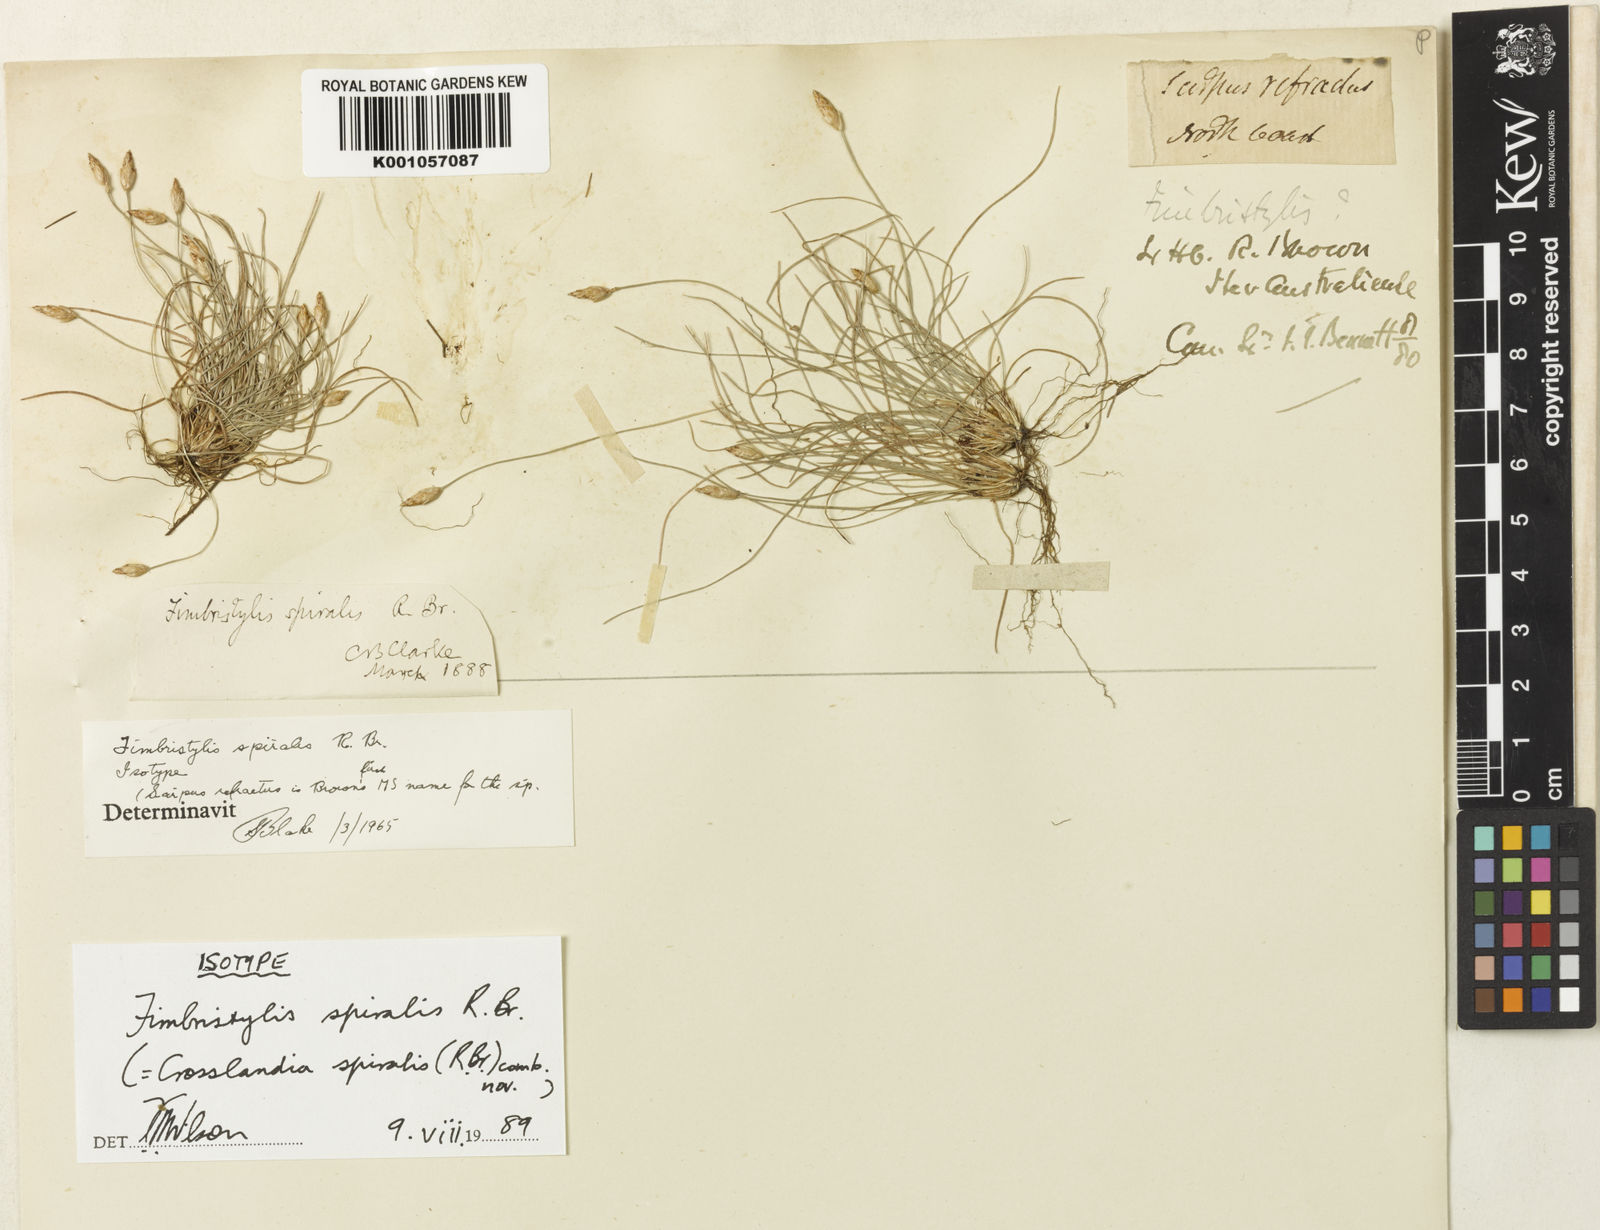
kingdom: Animalia
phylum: Mollusca
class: Gastropoda
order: Nudibranchia
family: Scyllaeidae
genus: Crosslandia
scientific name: Crosslandia
